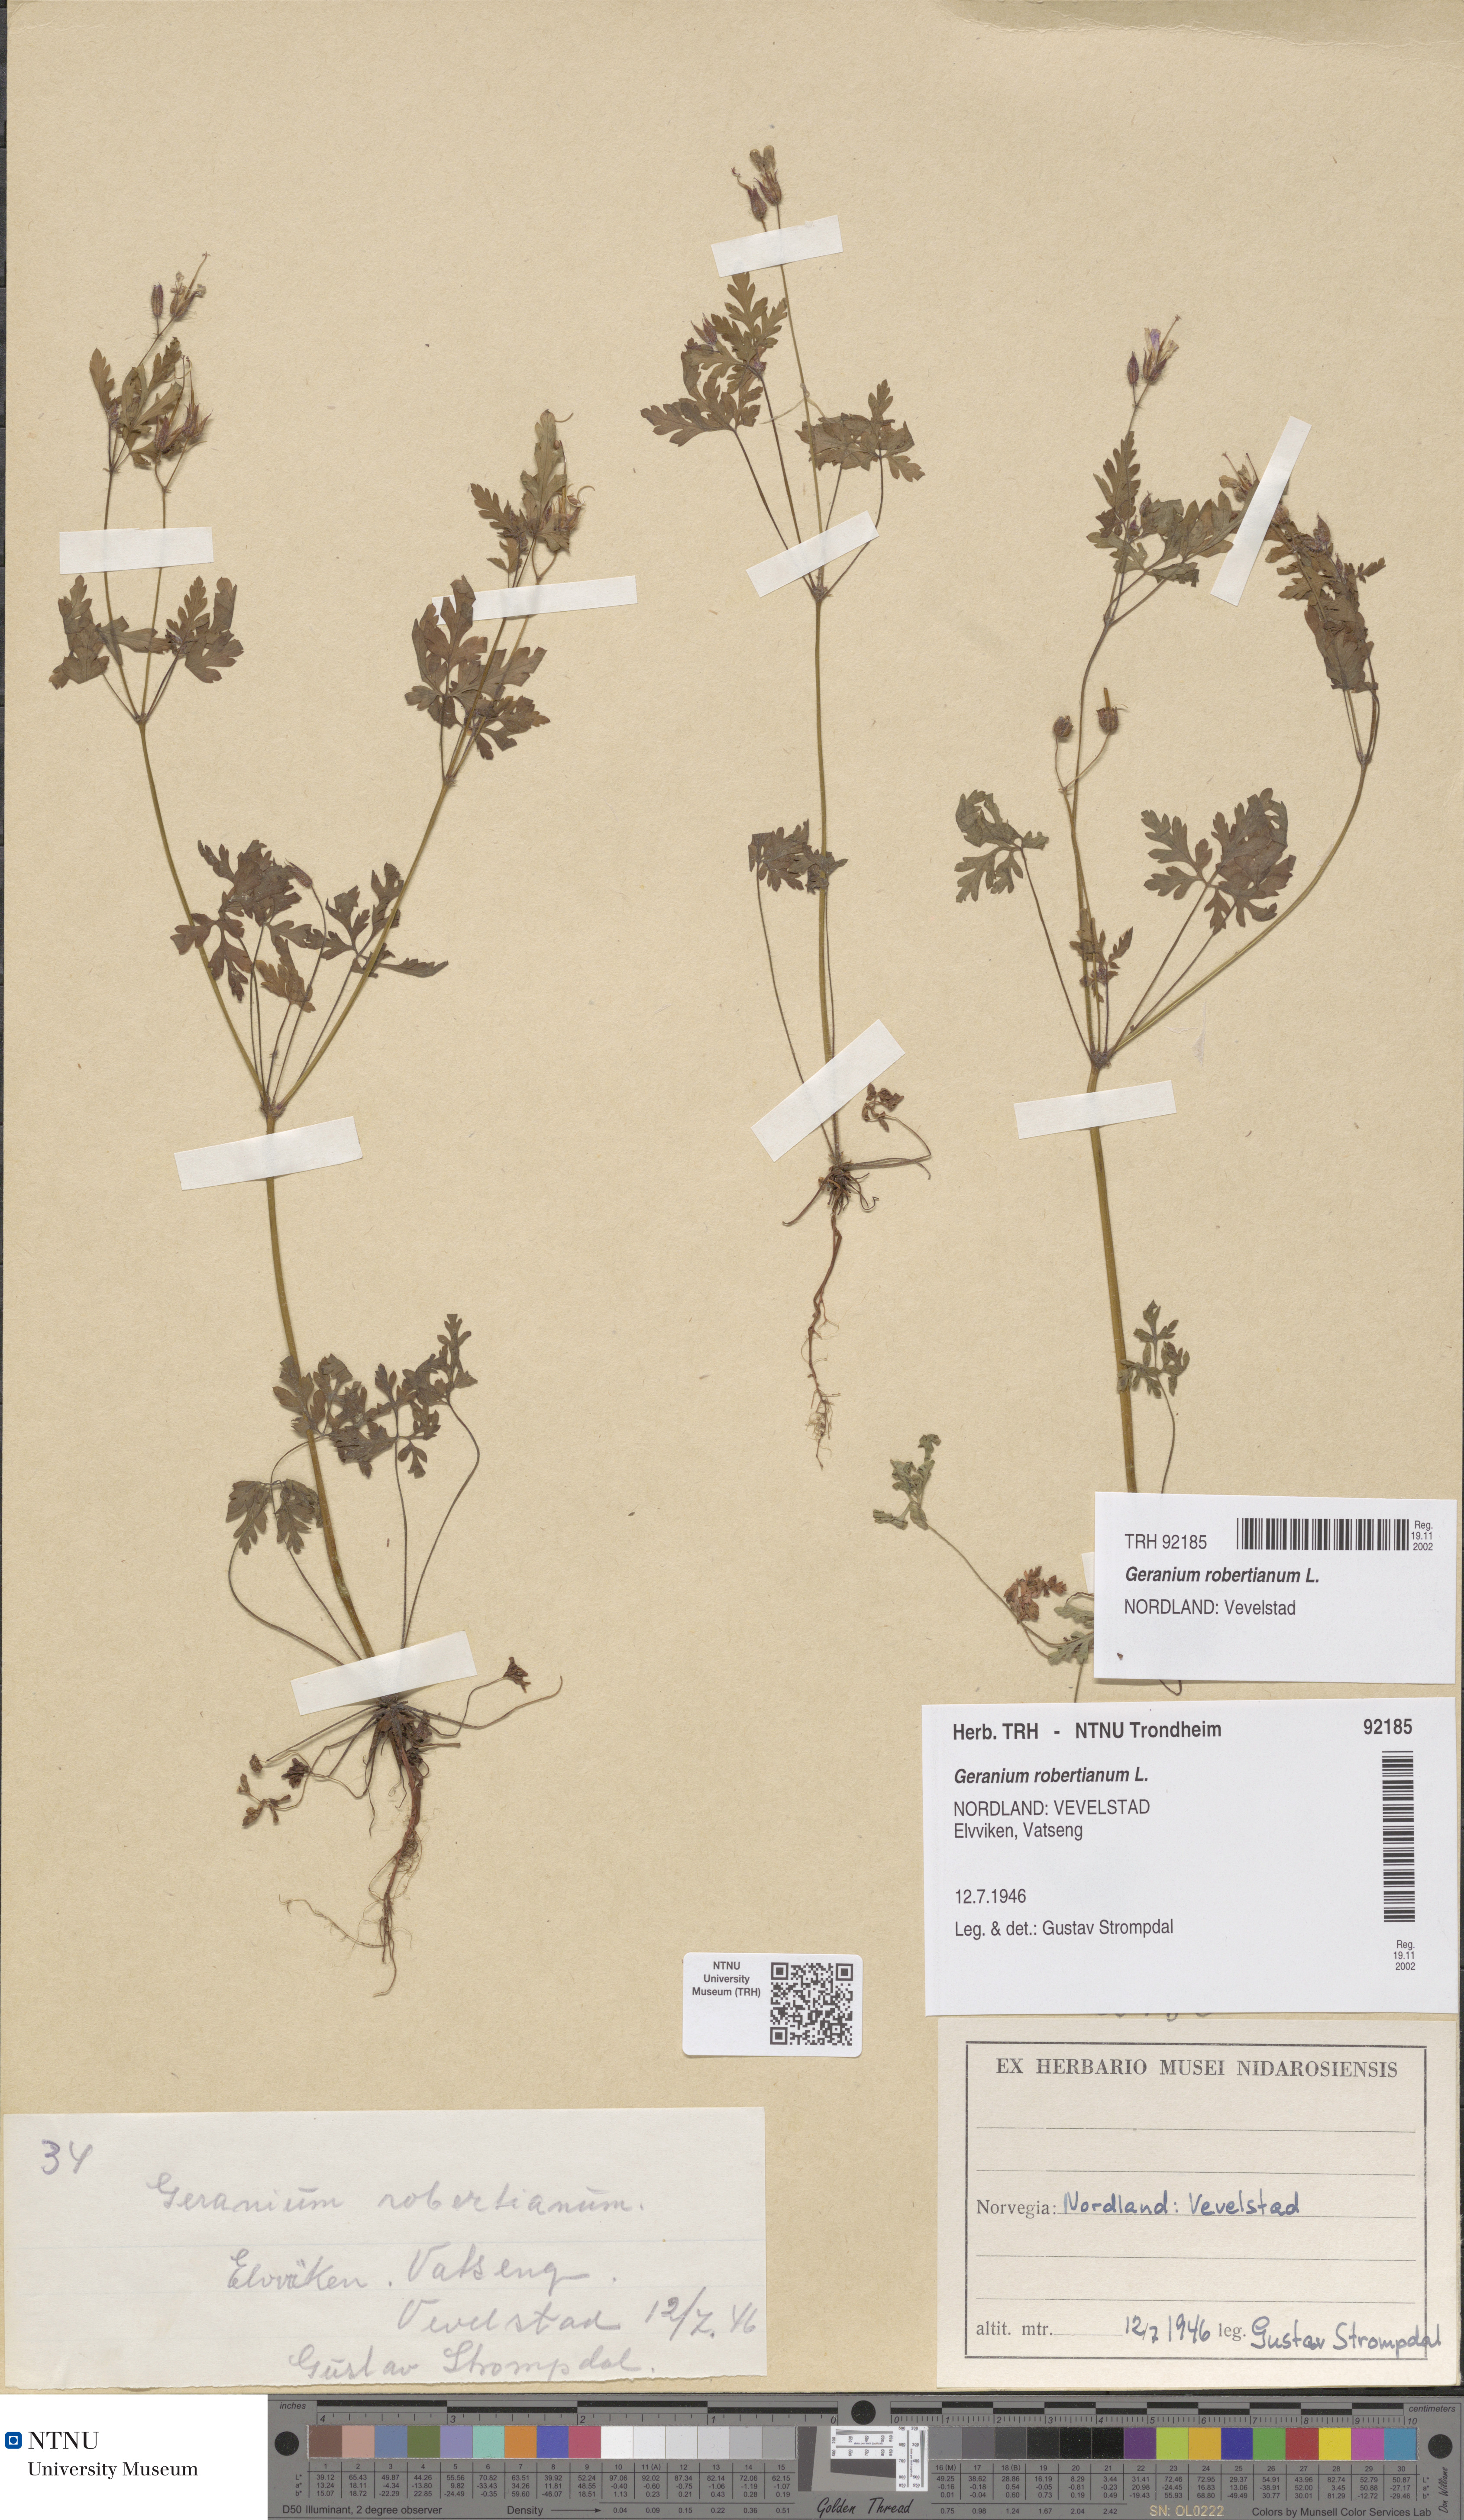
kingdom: Plantae
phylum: Tracheophyta
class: Magnoliopsida
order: Geraniales
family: Geraniaceae
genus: Geranium
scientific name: Geranium robertianum
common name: Herb-robert
